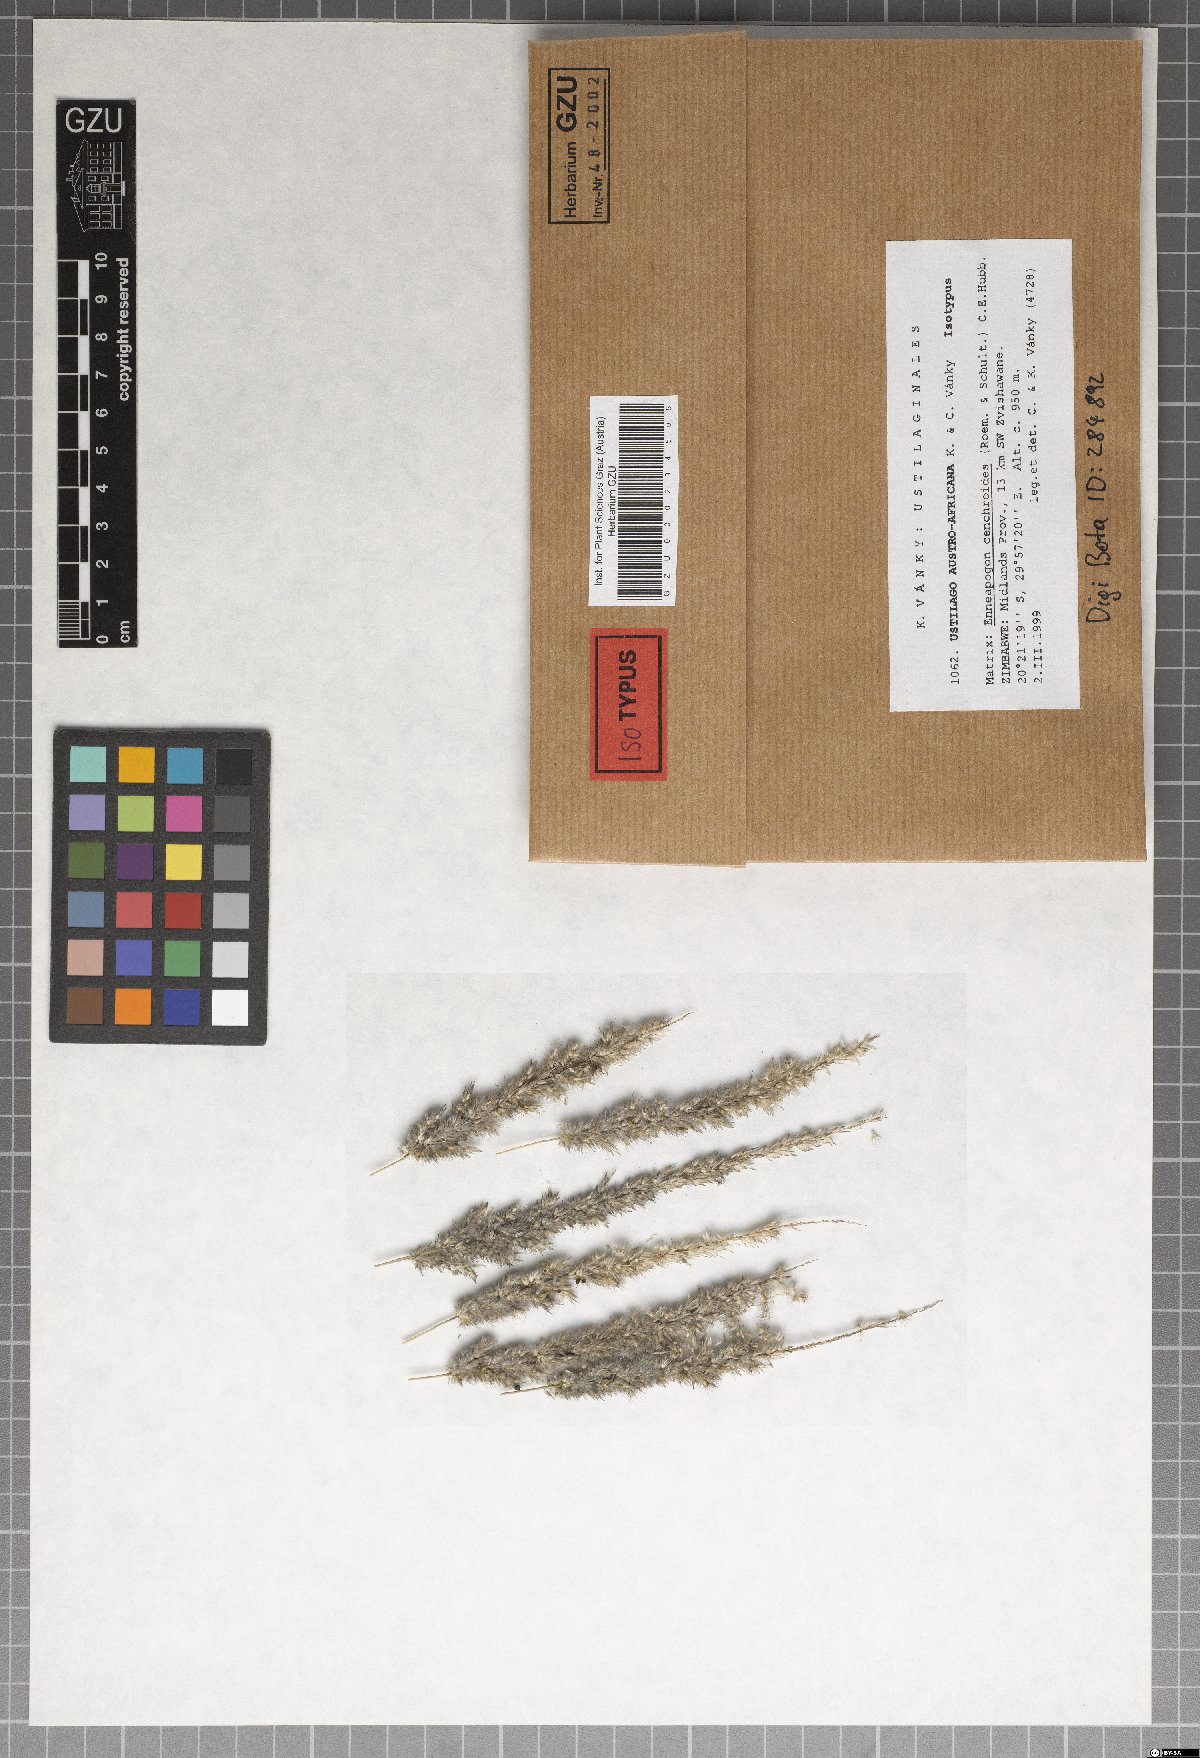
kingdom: Fungi
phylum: Basidiomycota
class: Ustilaginomycetes
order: Ustilaginales
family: Ustilaginaceae
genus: Ustilago
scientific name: Ustilago austro-africana
